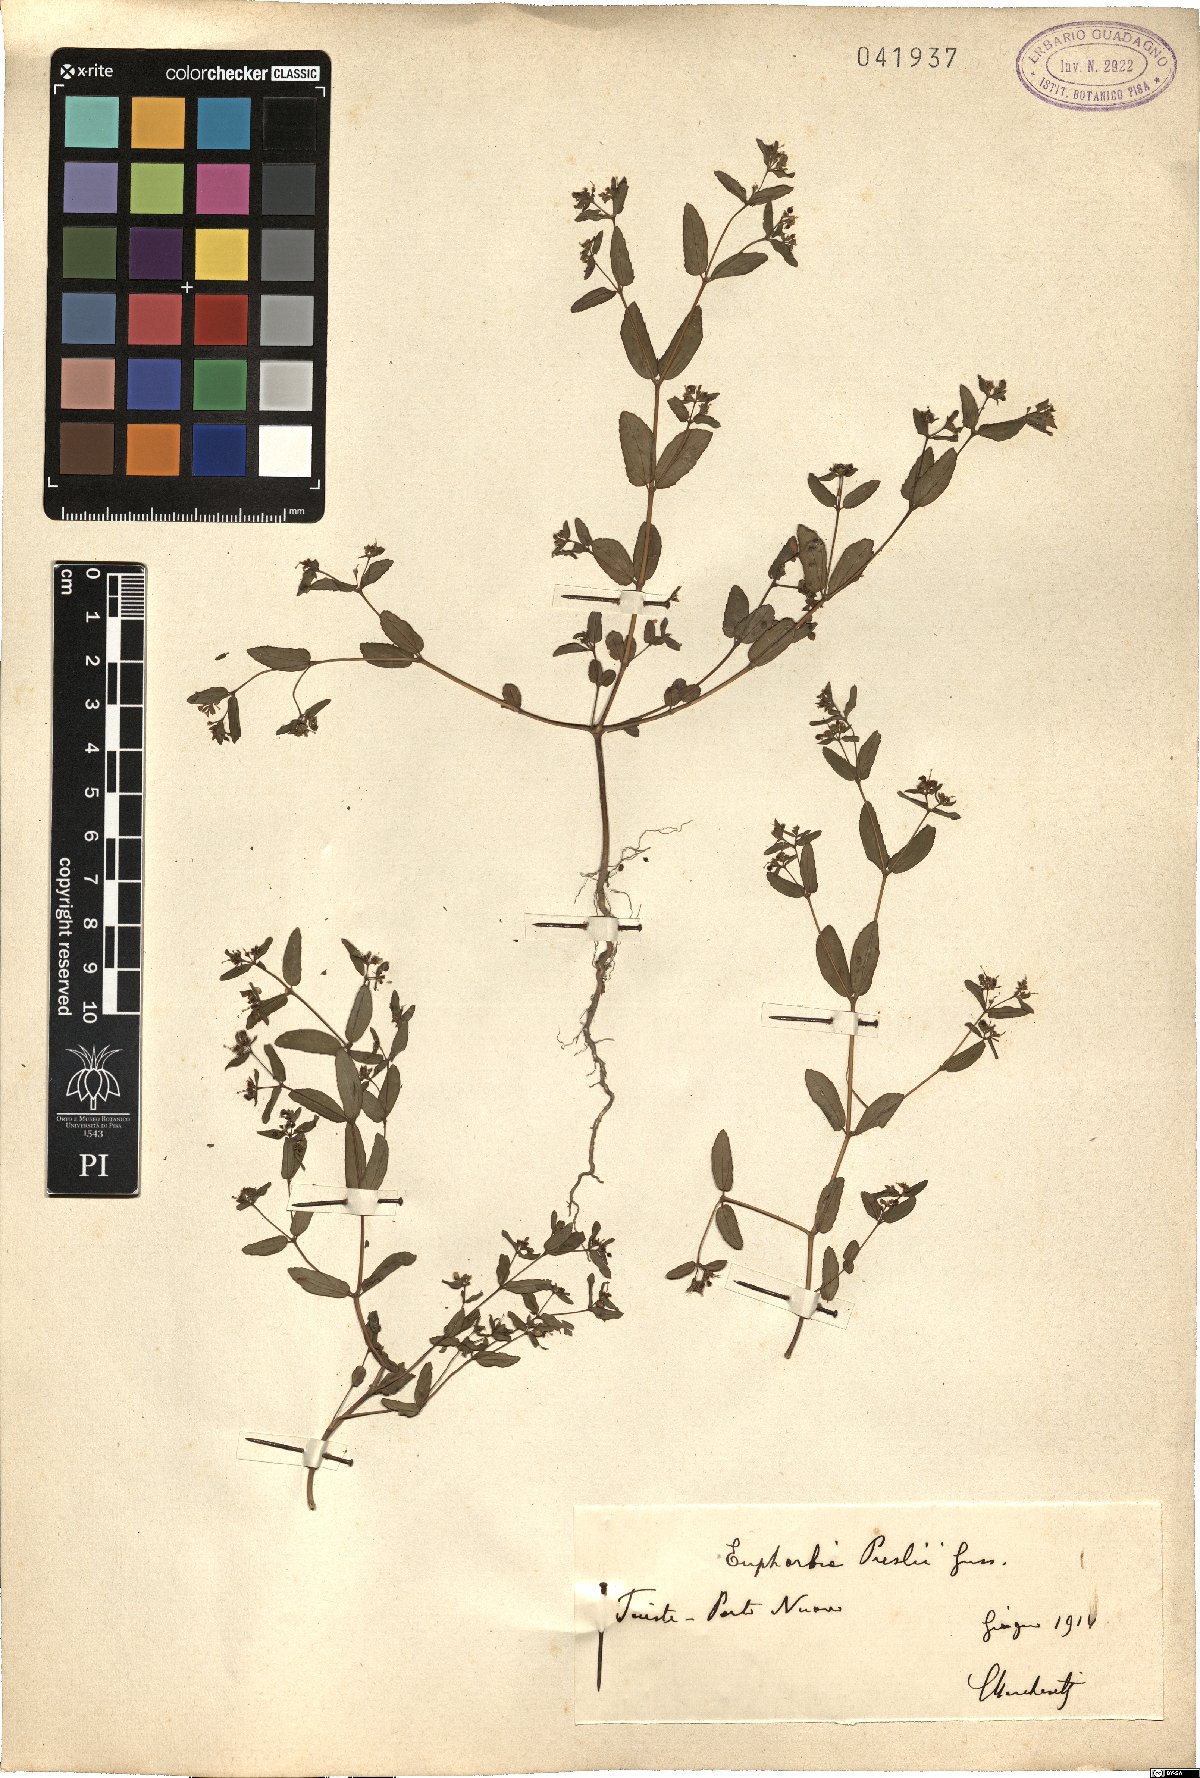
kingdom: Plantae
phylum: Tracheophyta
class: Magnoliopsida
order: Malpighiales
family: Euphorbiaceae
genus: Euphorbia
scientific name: Euphorbia nutans
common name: Eyebane
